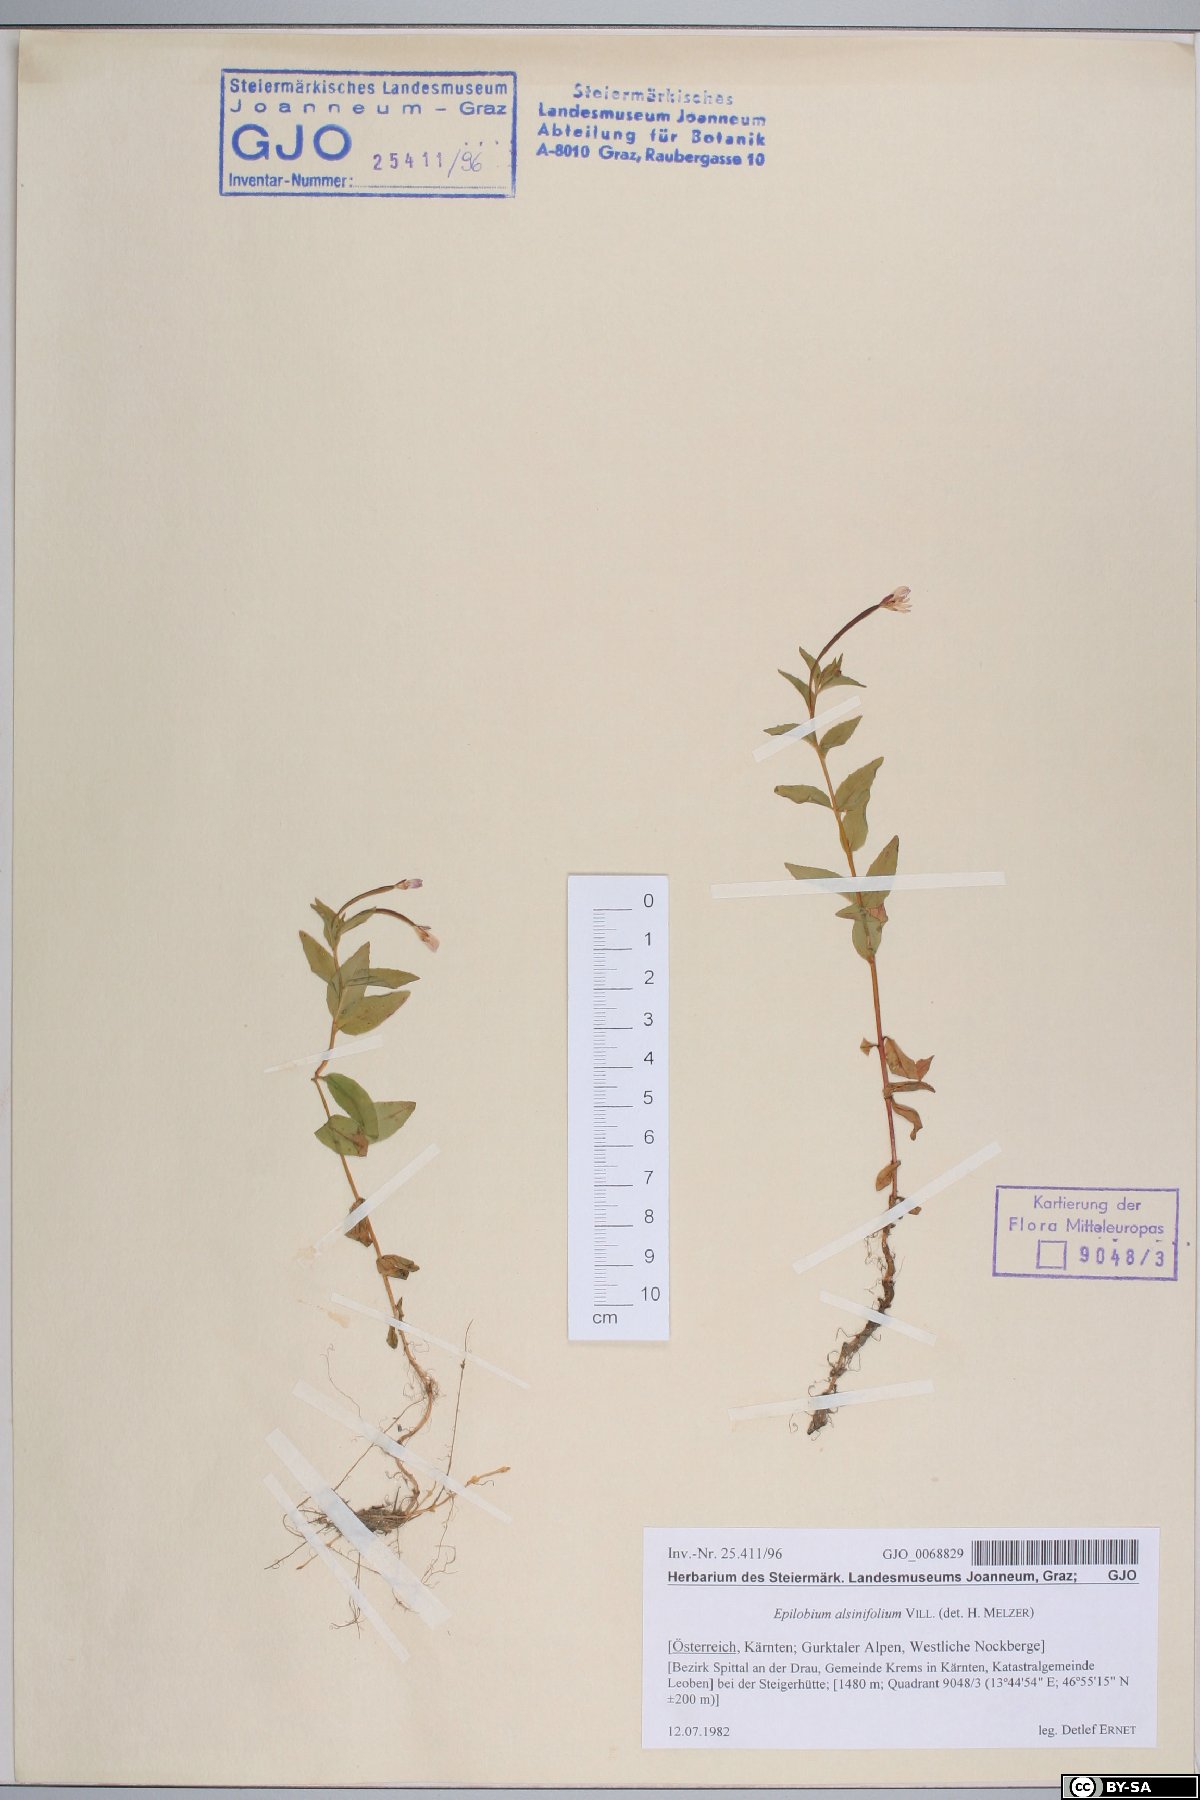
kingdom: Plantae
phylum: Tracheophyta
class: Magnoliopsida
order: Myrtales
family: Onagraceae
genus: Epilobium
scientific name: Epilobium alsinifolium
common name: Chickweed willowherb
